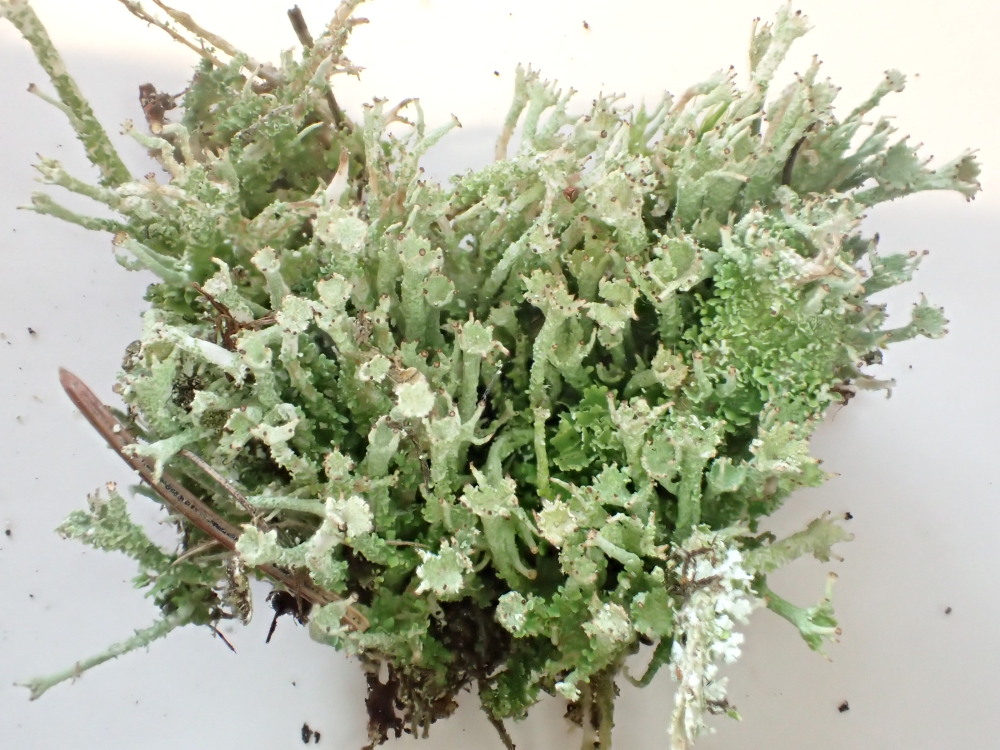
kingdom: Fungi
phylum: Ascomycota
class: Lecanoromycetes
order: Lecanorales
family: Cladoniaceae
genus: Cladonia
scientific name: Cladonia ramulosa
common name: kliddet bægerlav
